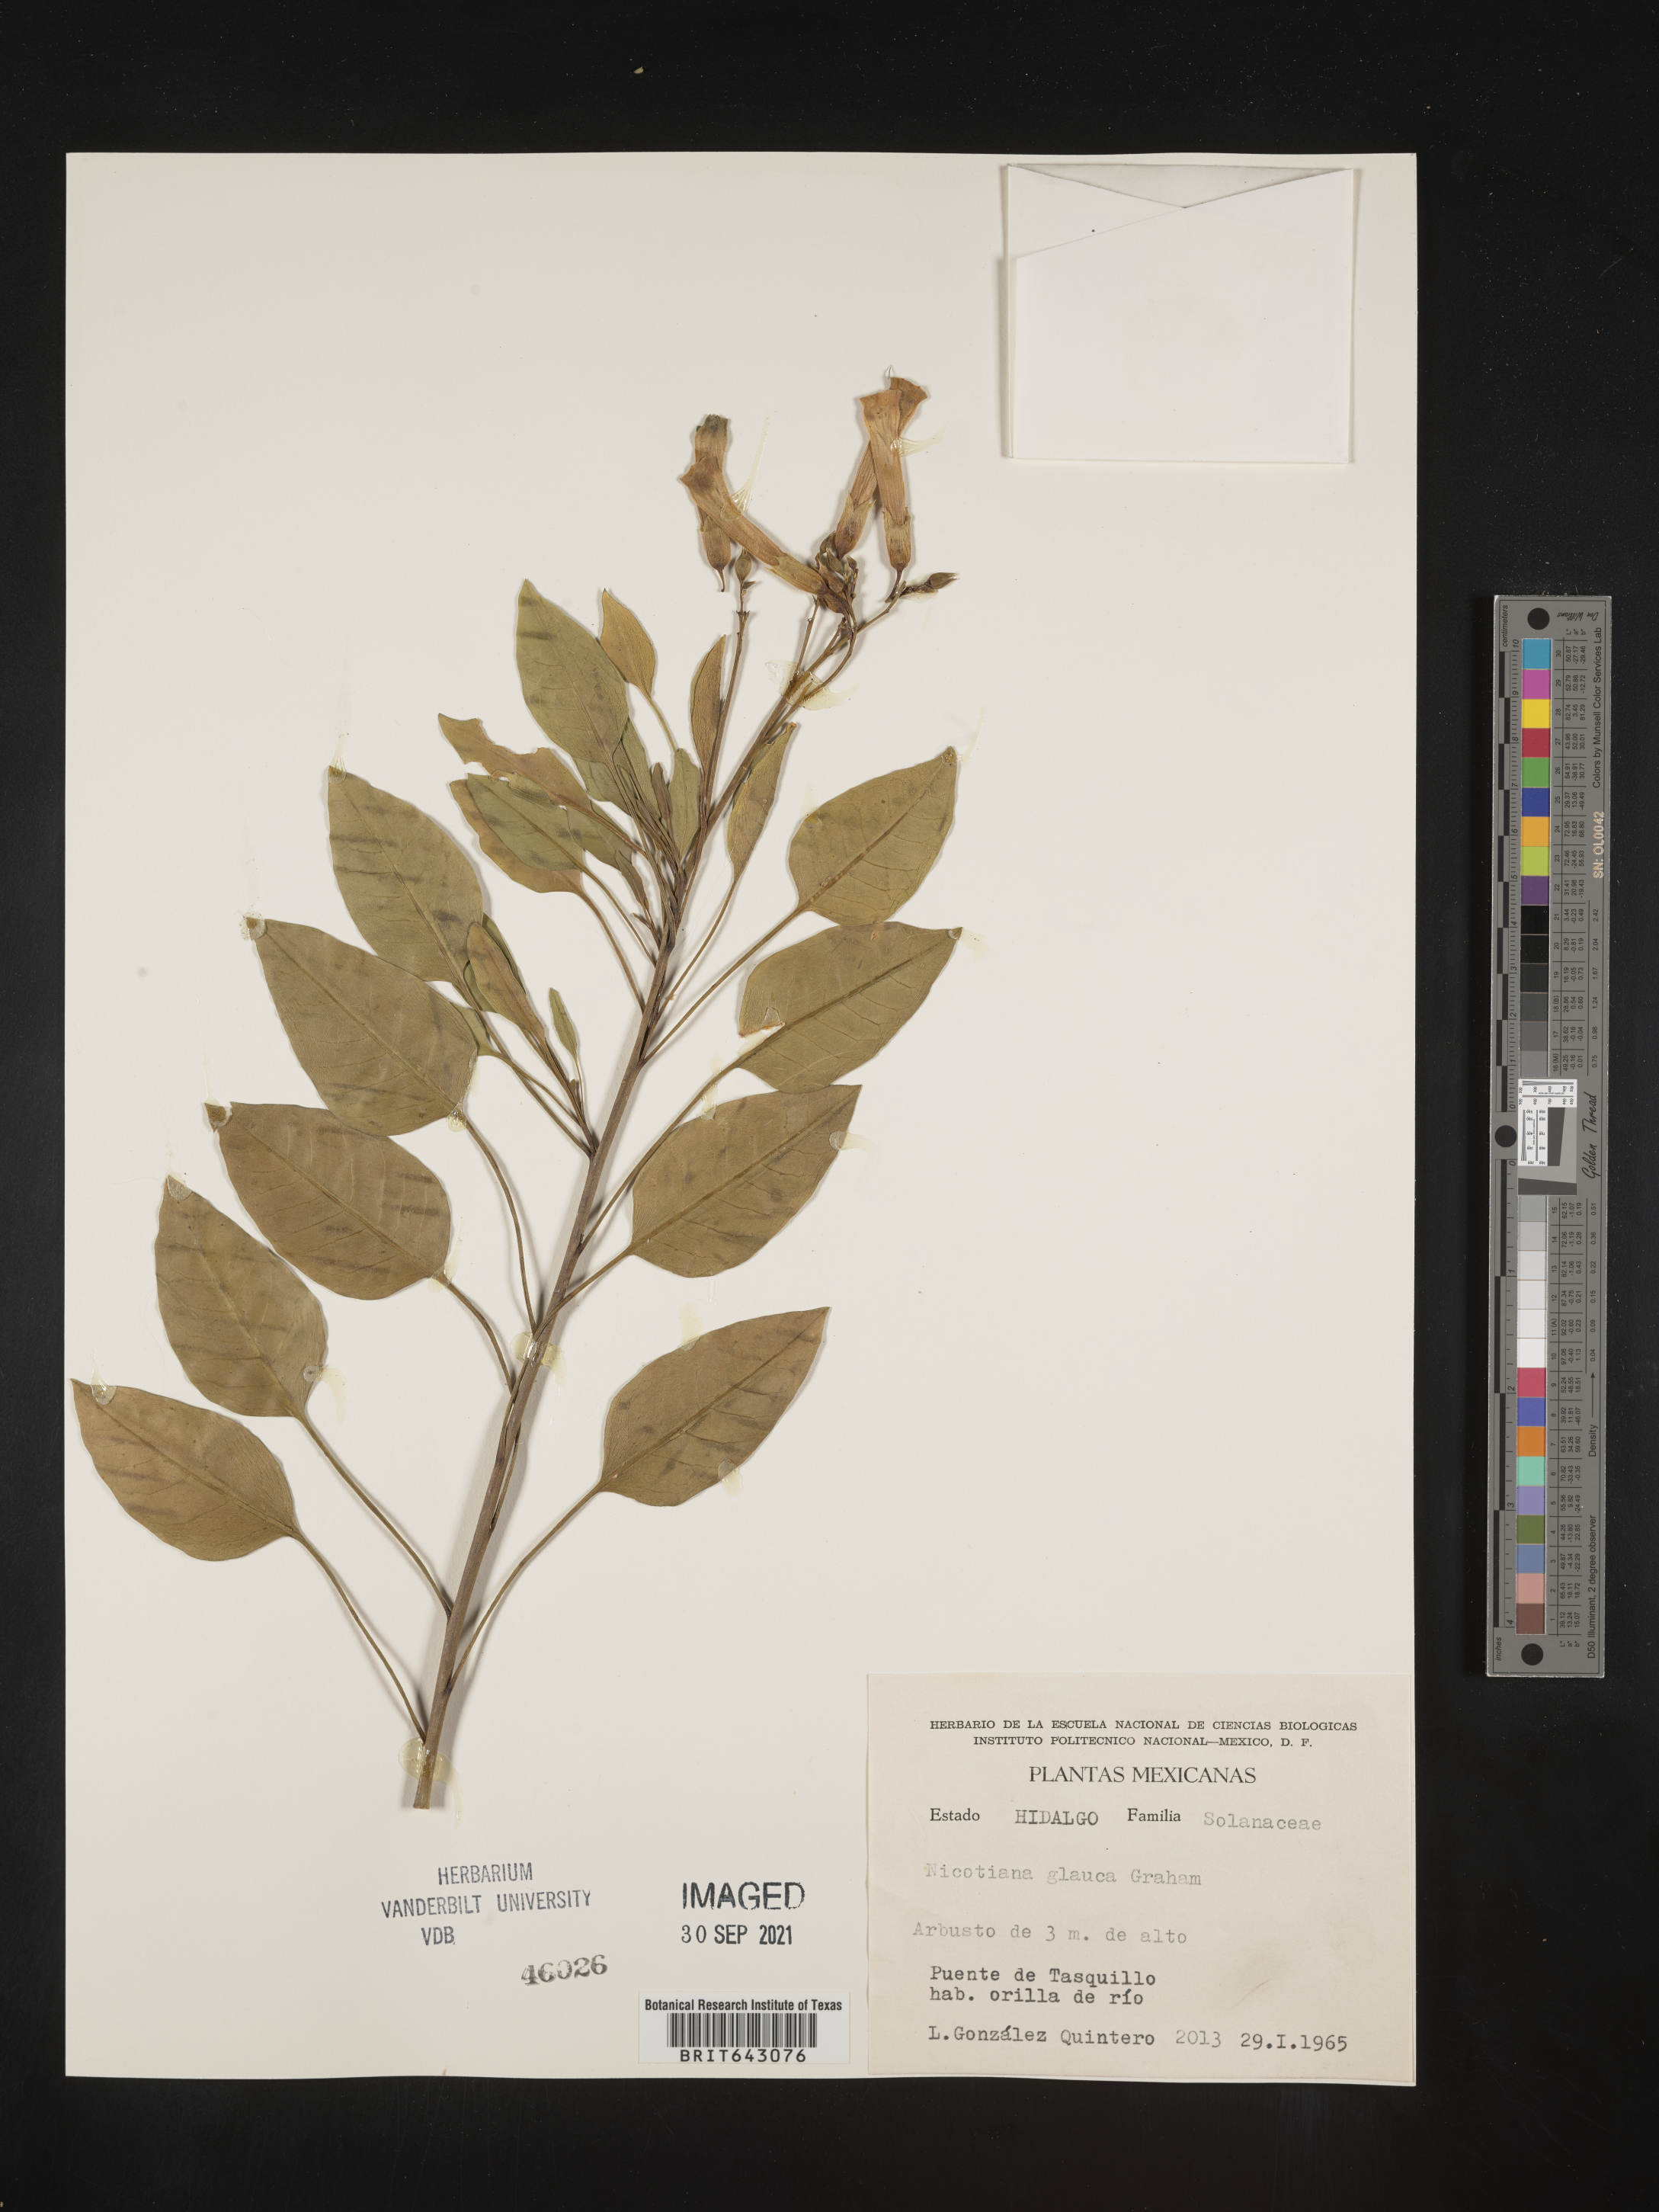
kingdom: Plantae
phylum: Tracheophyta
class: Magnoliopsida
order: Solanales
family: Solanaceae
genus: Nicotiana
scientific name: Nicotiana
